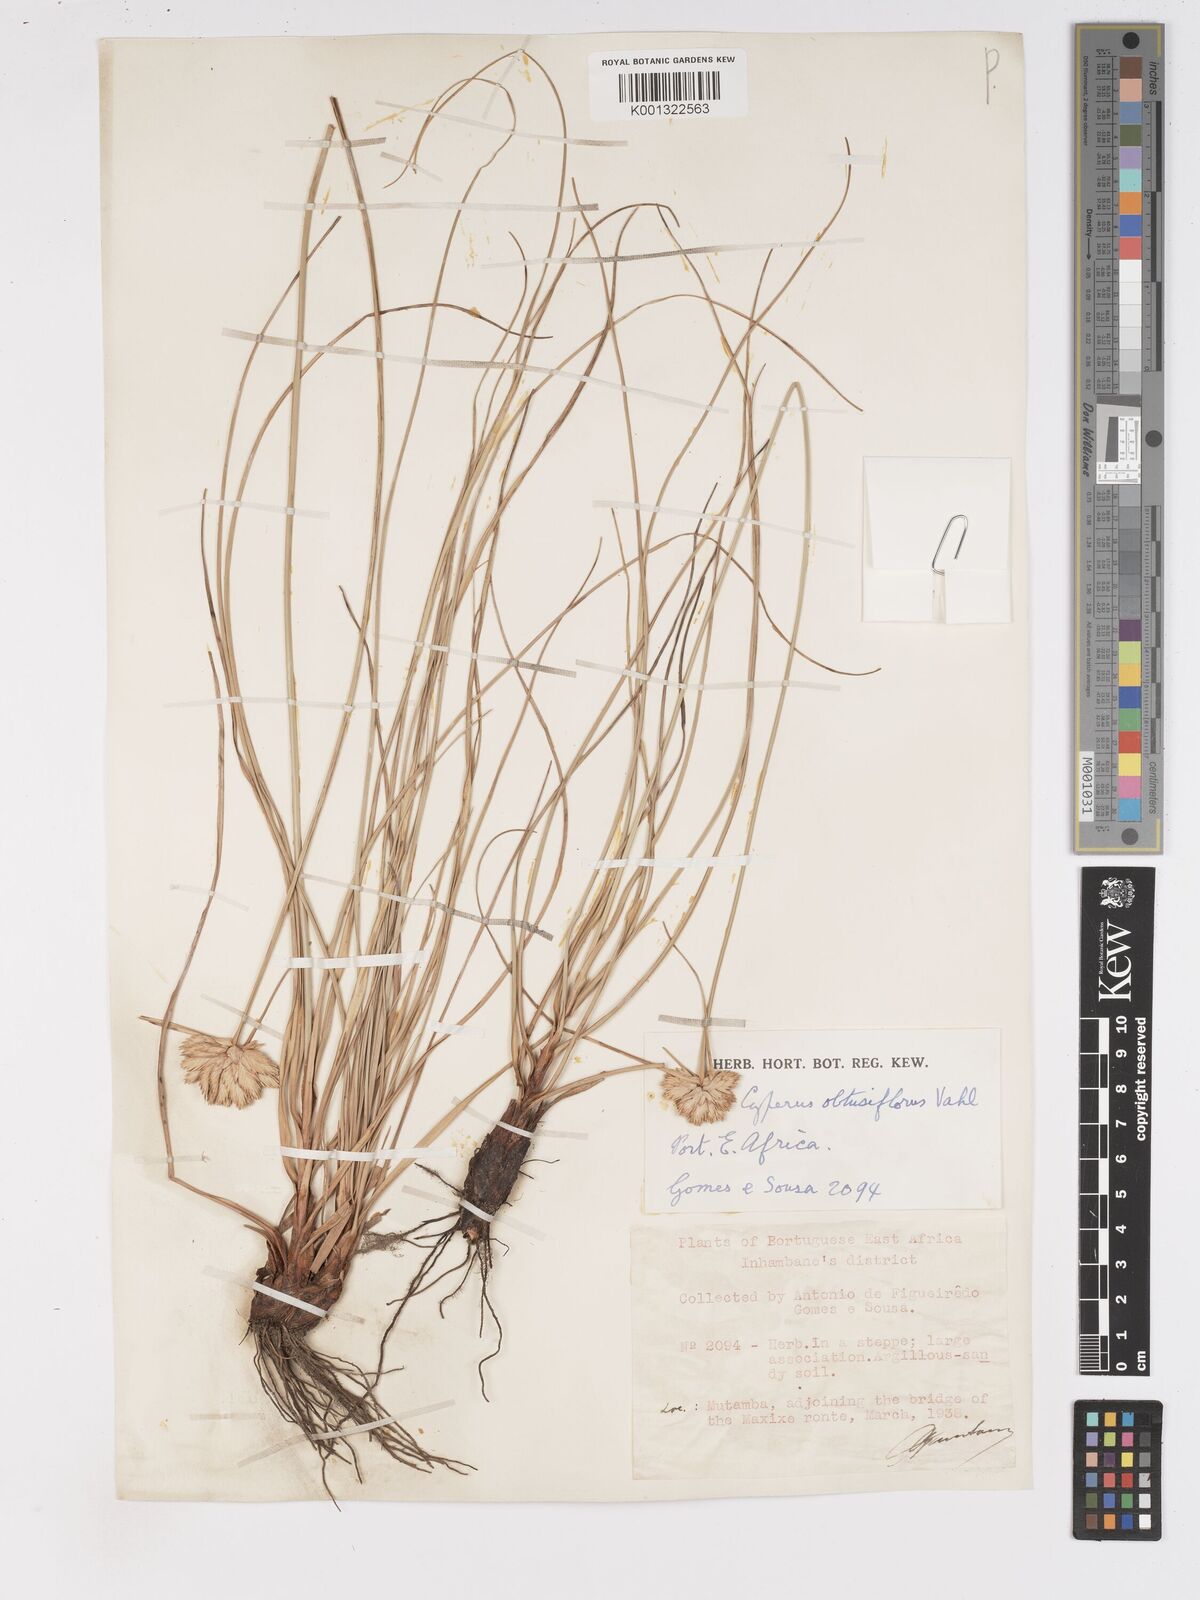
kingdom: Plantae
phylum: Tracheophyta
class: Liliopsida
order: Poales
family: Cyperaceae
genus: Cyperus
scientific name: Cyperus niveus
